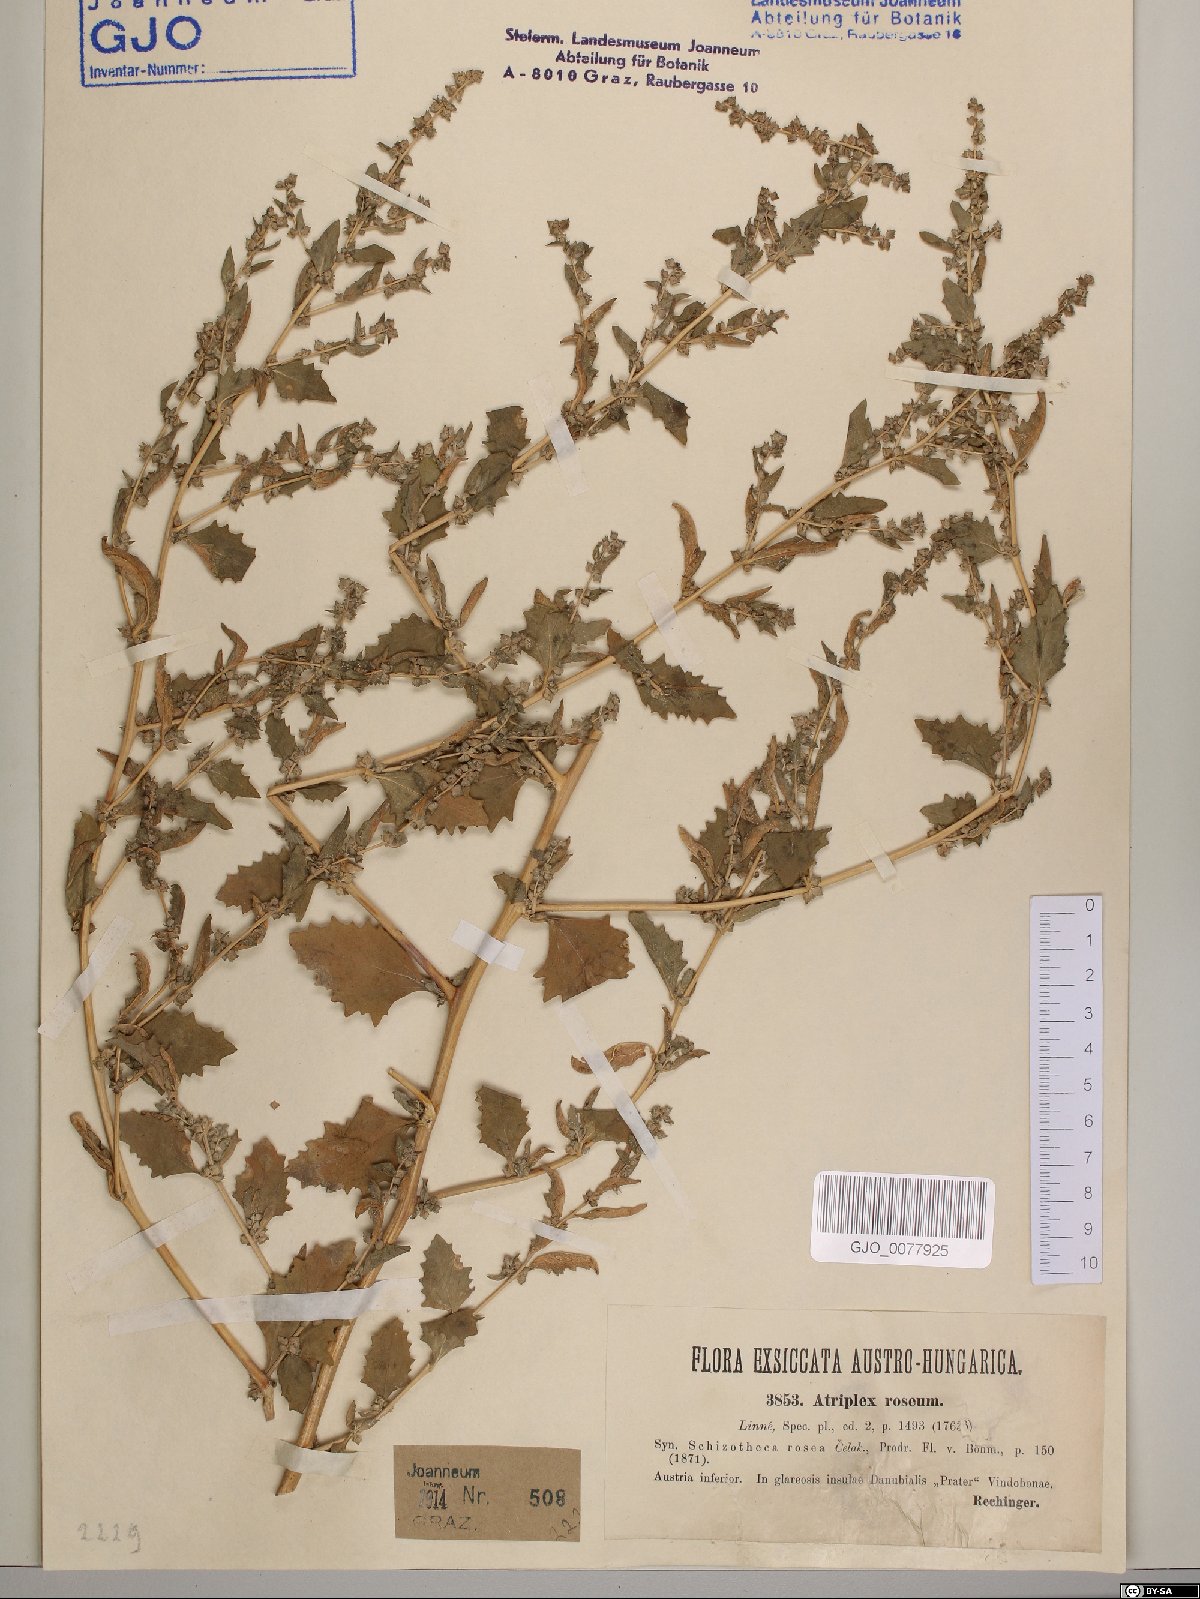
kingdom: Plantae
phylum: Tracheophyta
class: Magnoliopsida
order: Caryophyllales
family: Amaranthaceae
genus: Atriplex
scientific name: Atriplex rosea
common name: Tumbling saltweed
